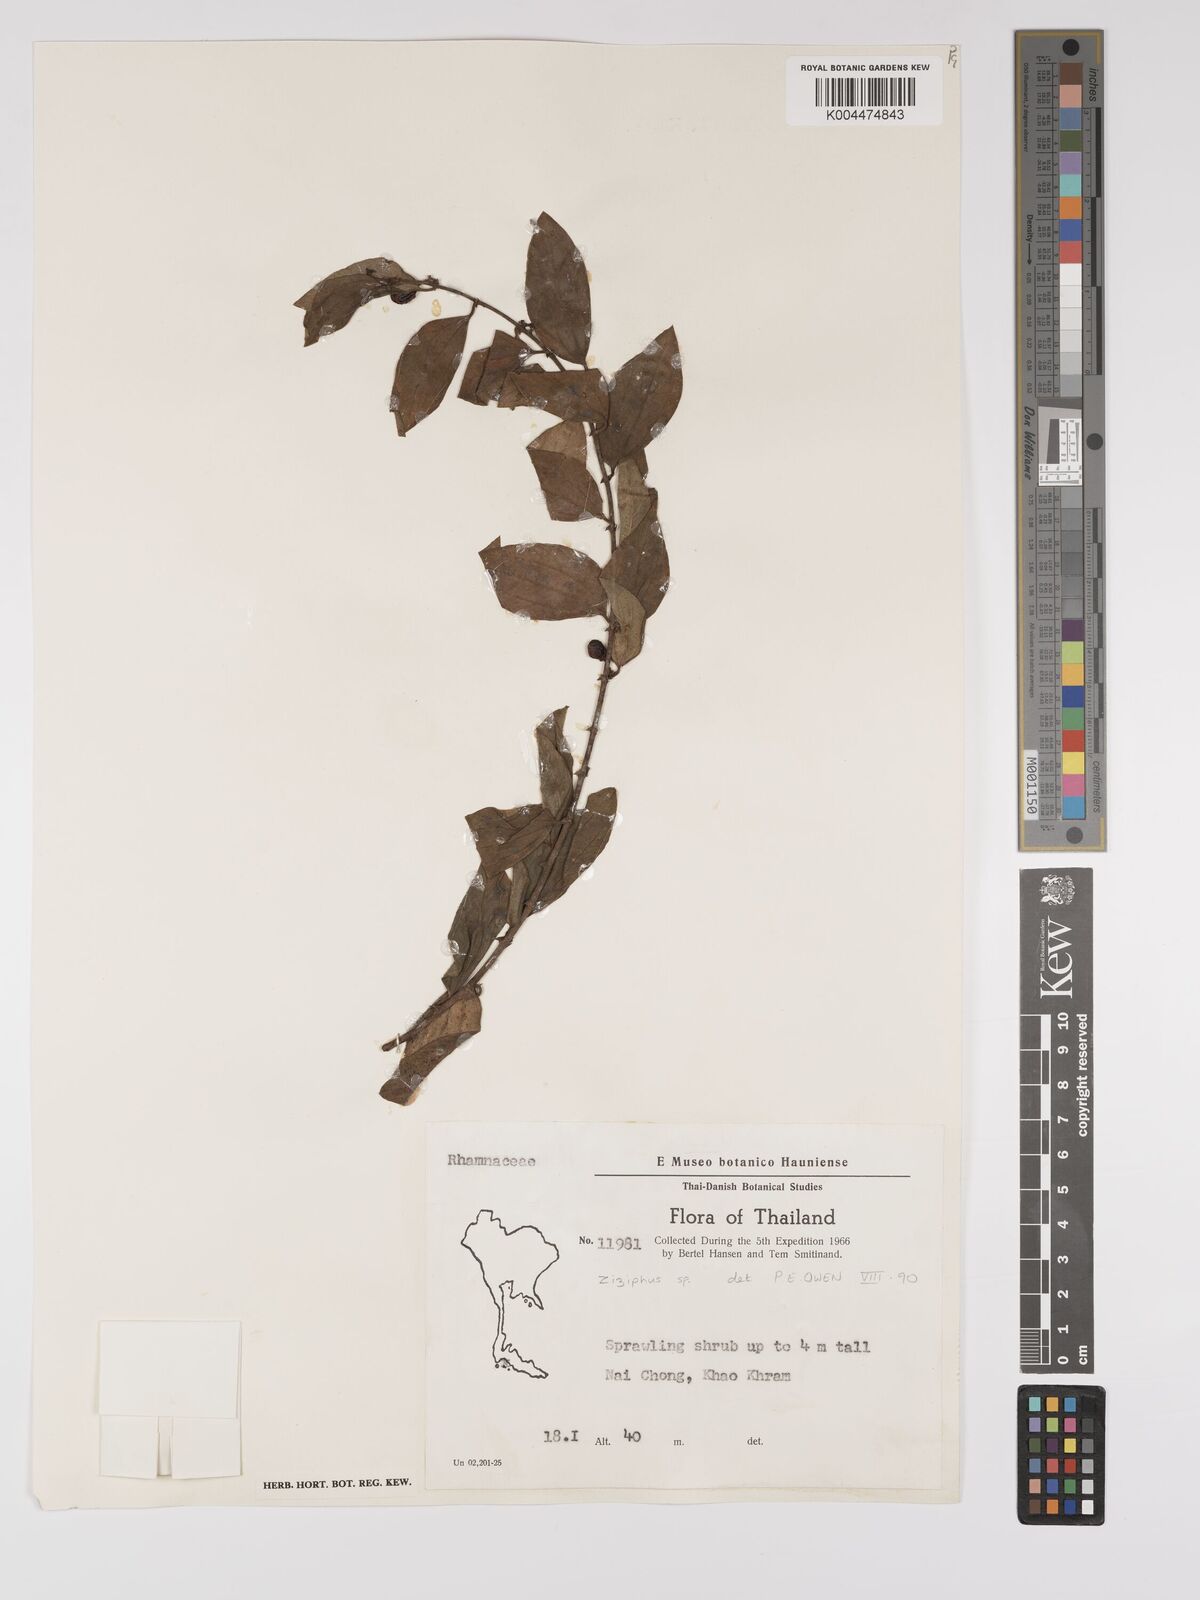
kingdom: Plantae
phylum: Tracheophyta
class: Magnoliopsida
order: Rosales
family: Rhamnaceae
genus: Ziziphus
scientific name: Ziziphus oenopolia
